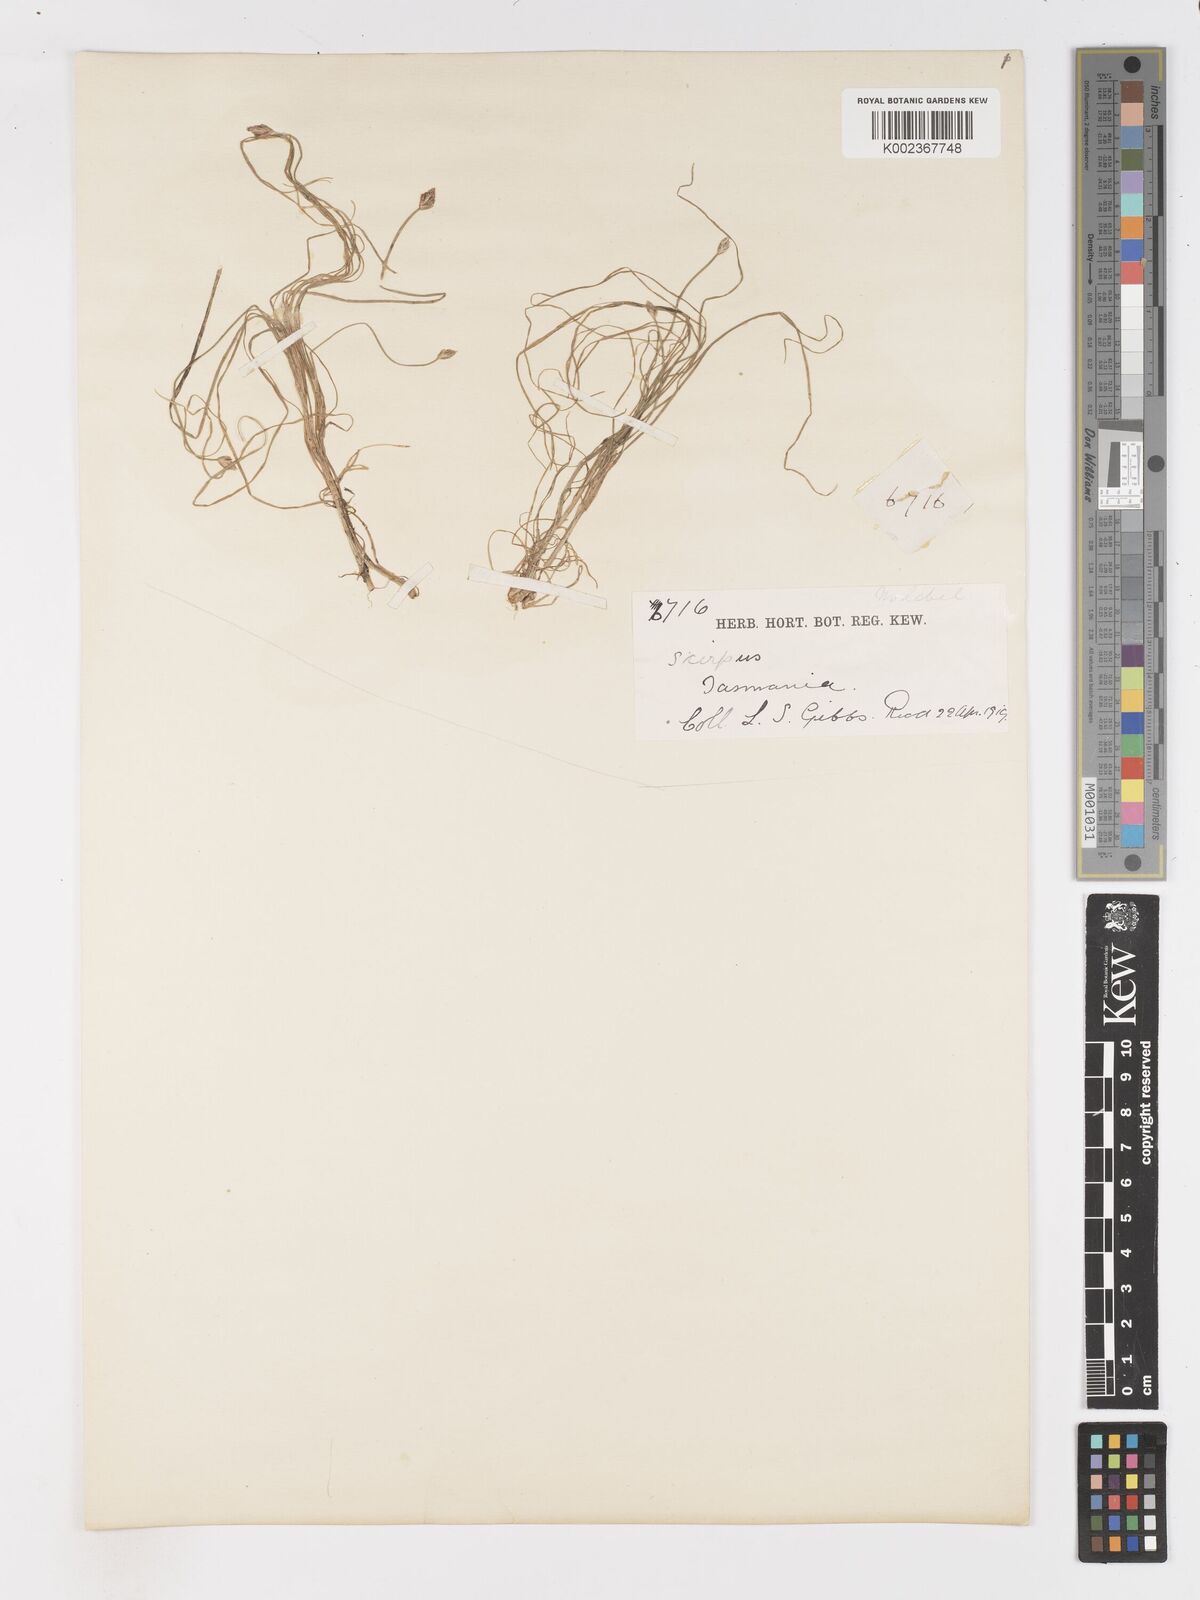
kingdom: Plantae
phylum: Tracheophyta
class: Liliopsida
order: Poales
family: Cyperaceae
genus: Isolepis
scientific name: Isolepis crassiuscula
